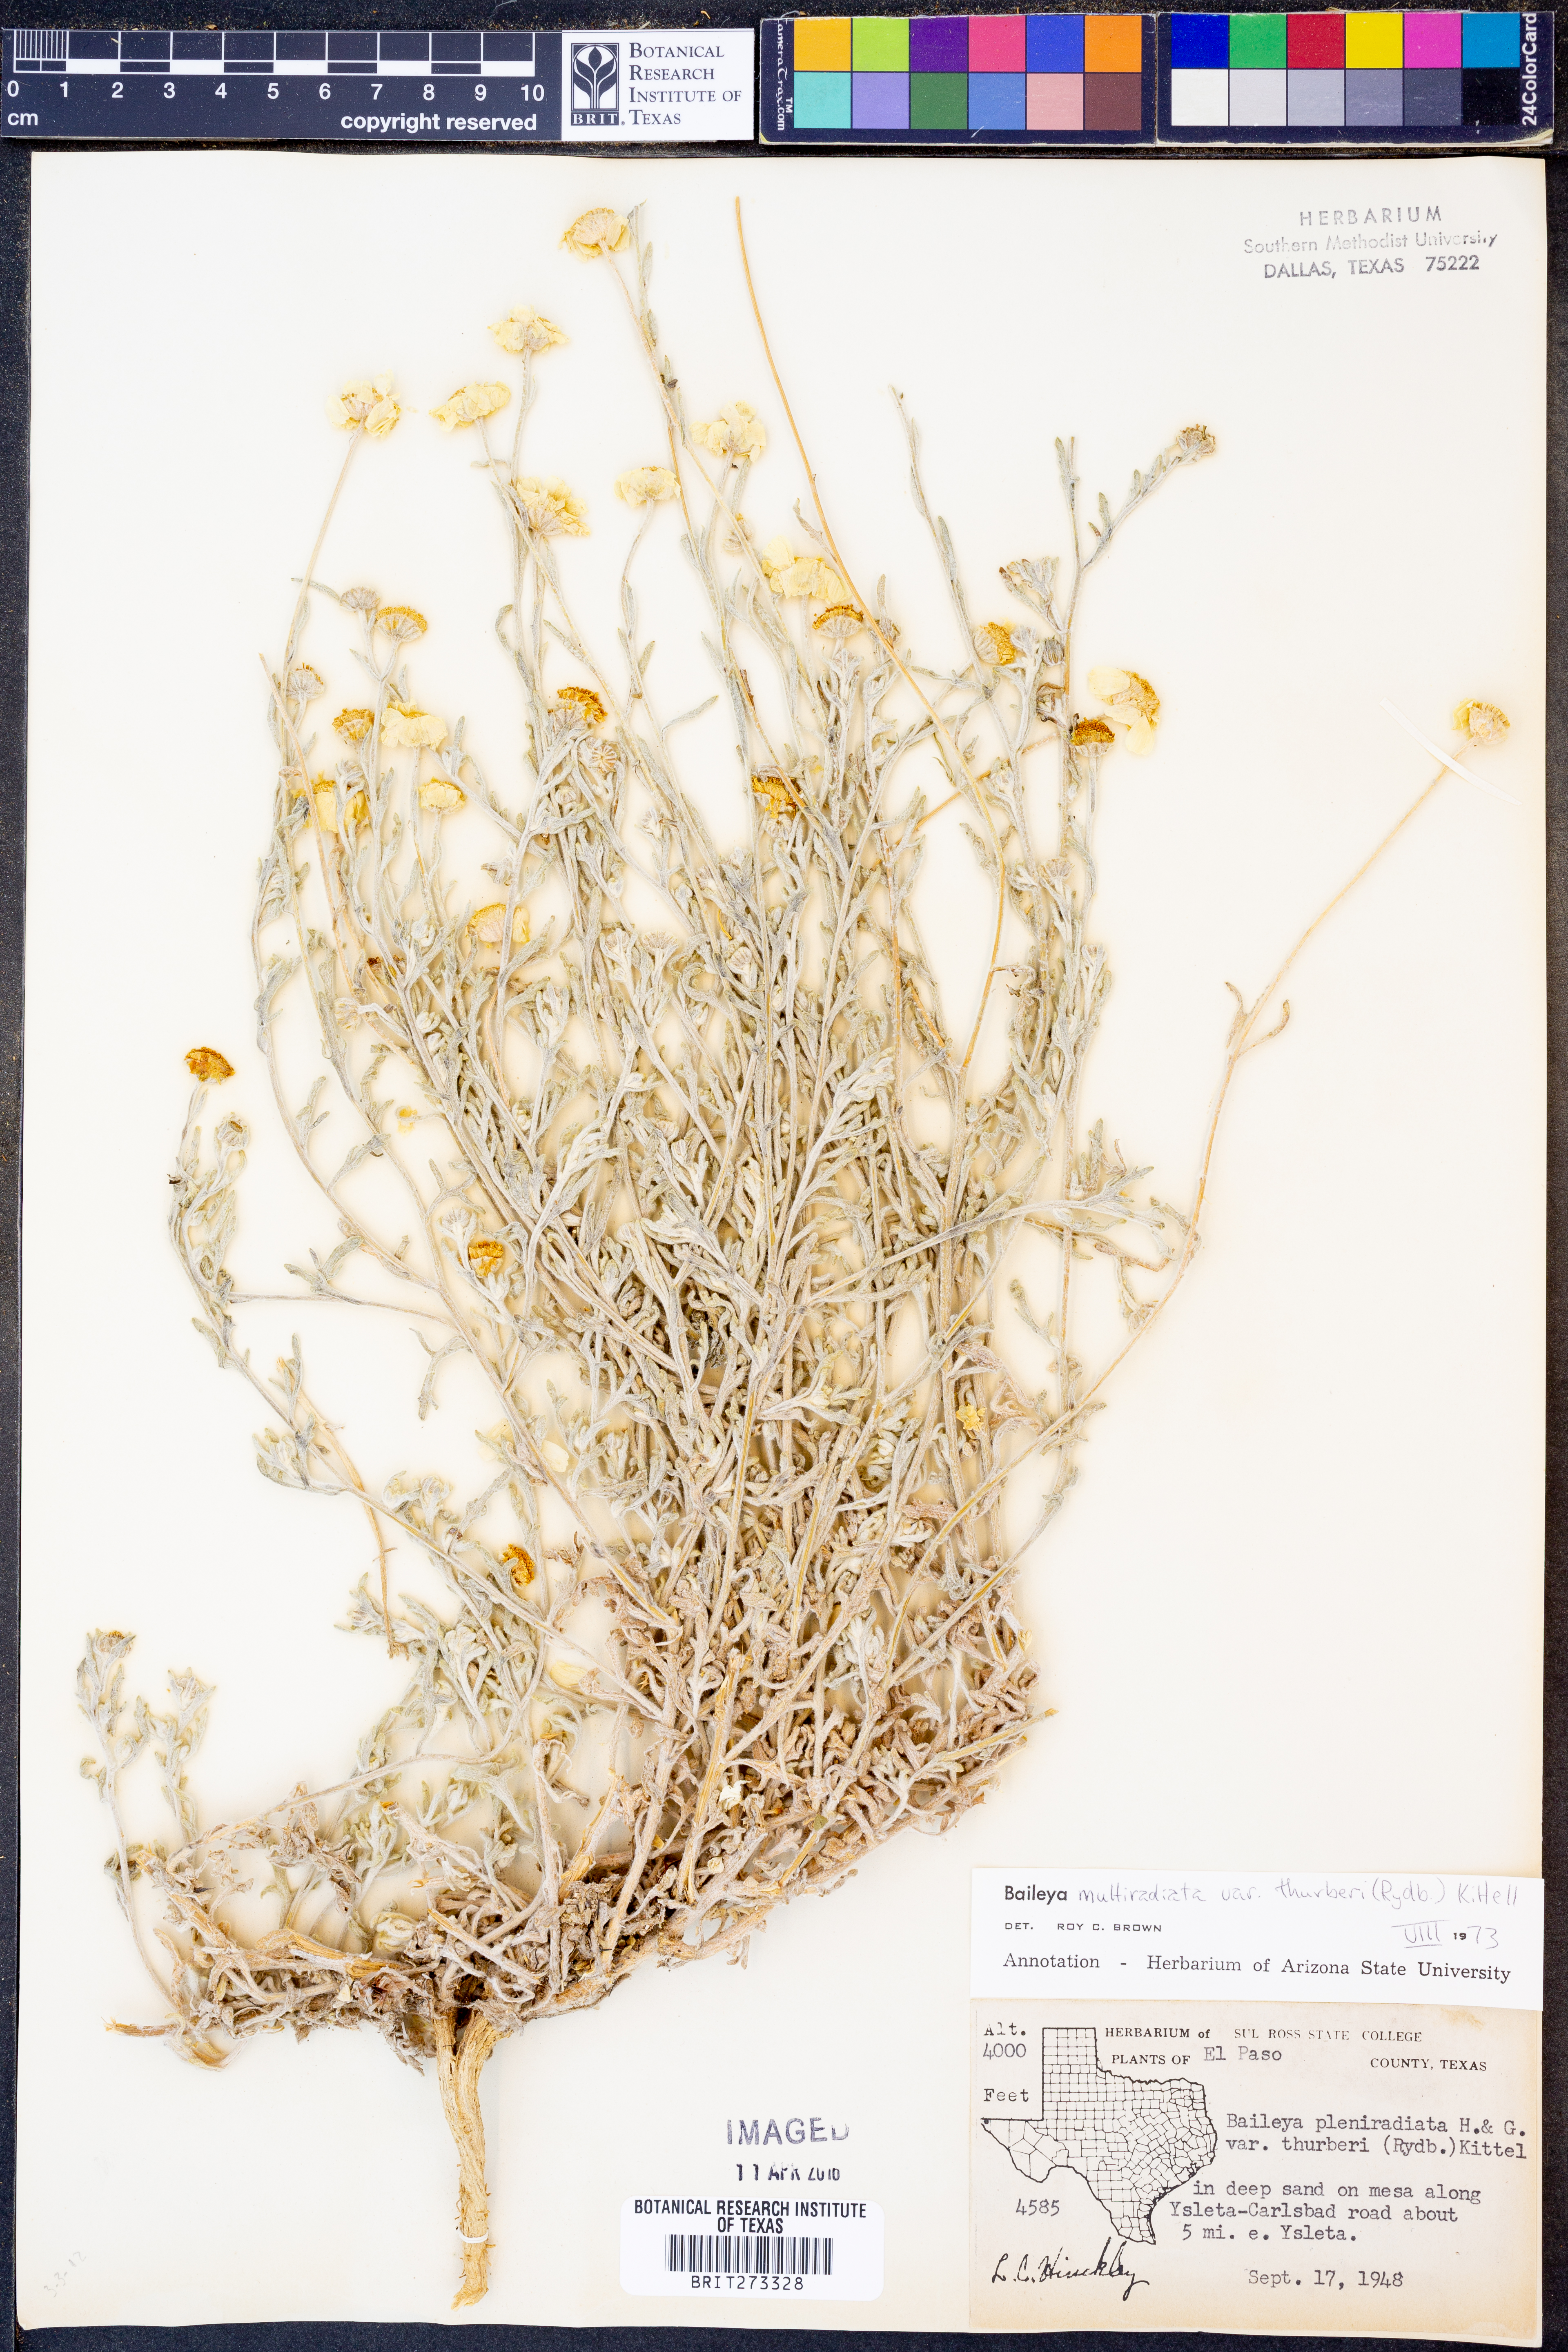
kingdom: Plantae
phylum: Tracheophyta
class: Magnoliopsida
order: Asterales
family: Asteraceae
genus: Baileya
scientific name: Baileya multiradiata
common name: Desert-marigold
